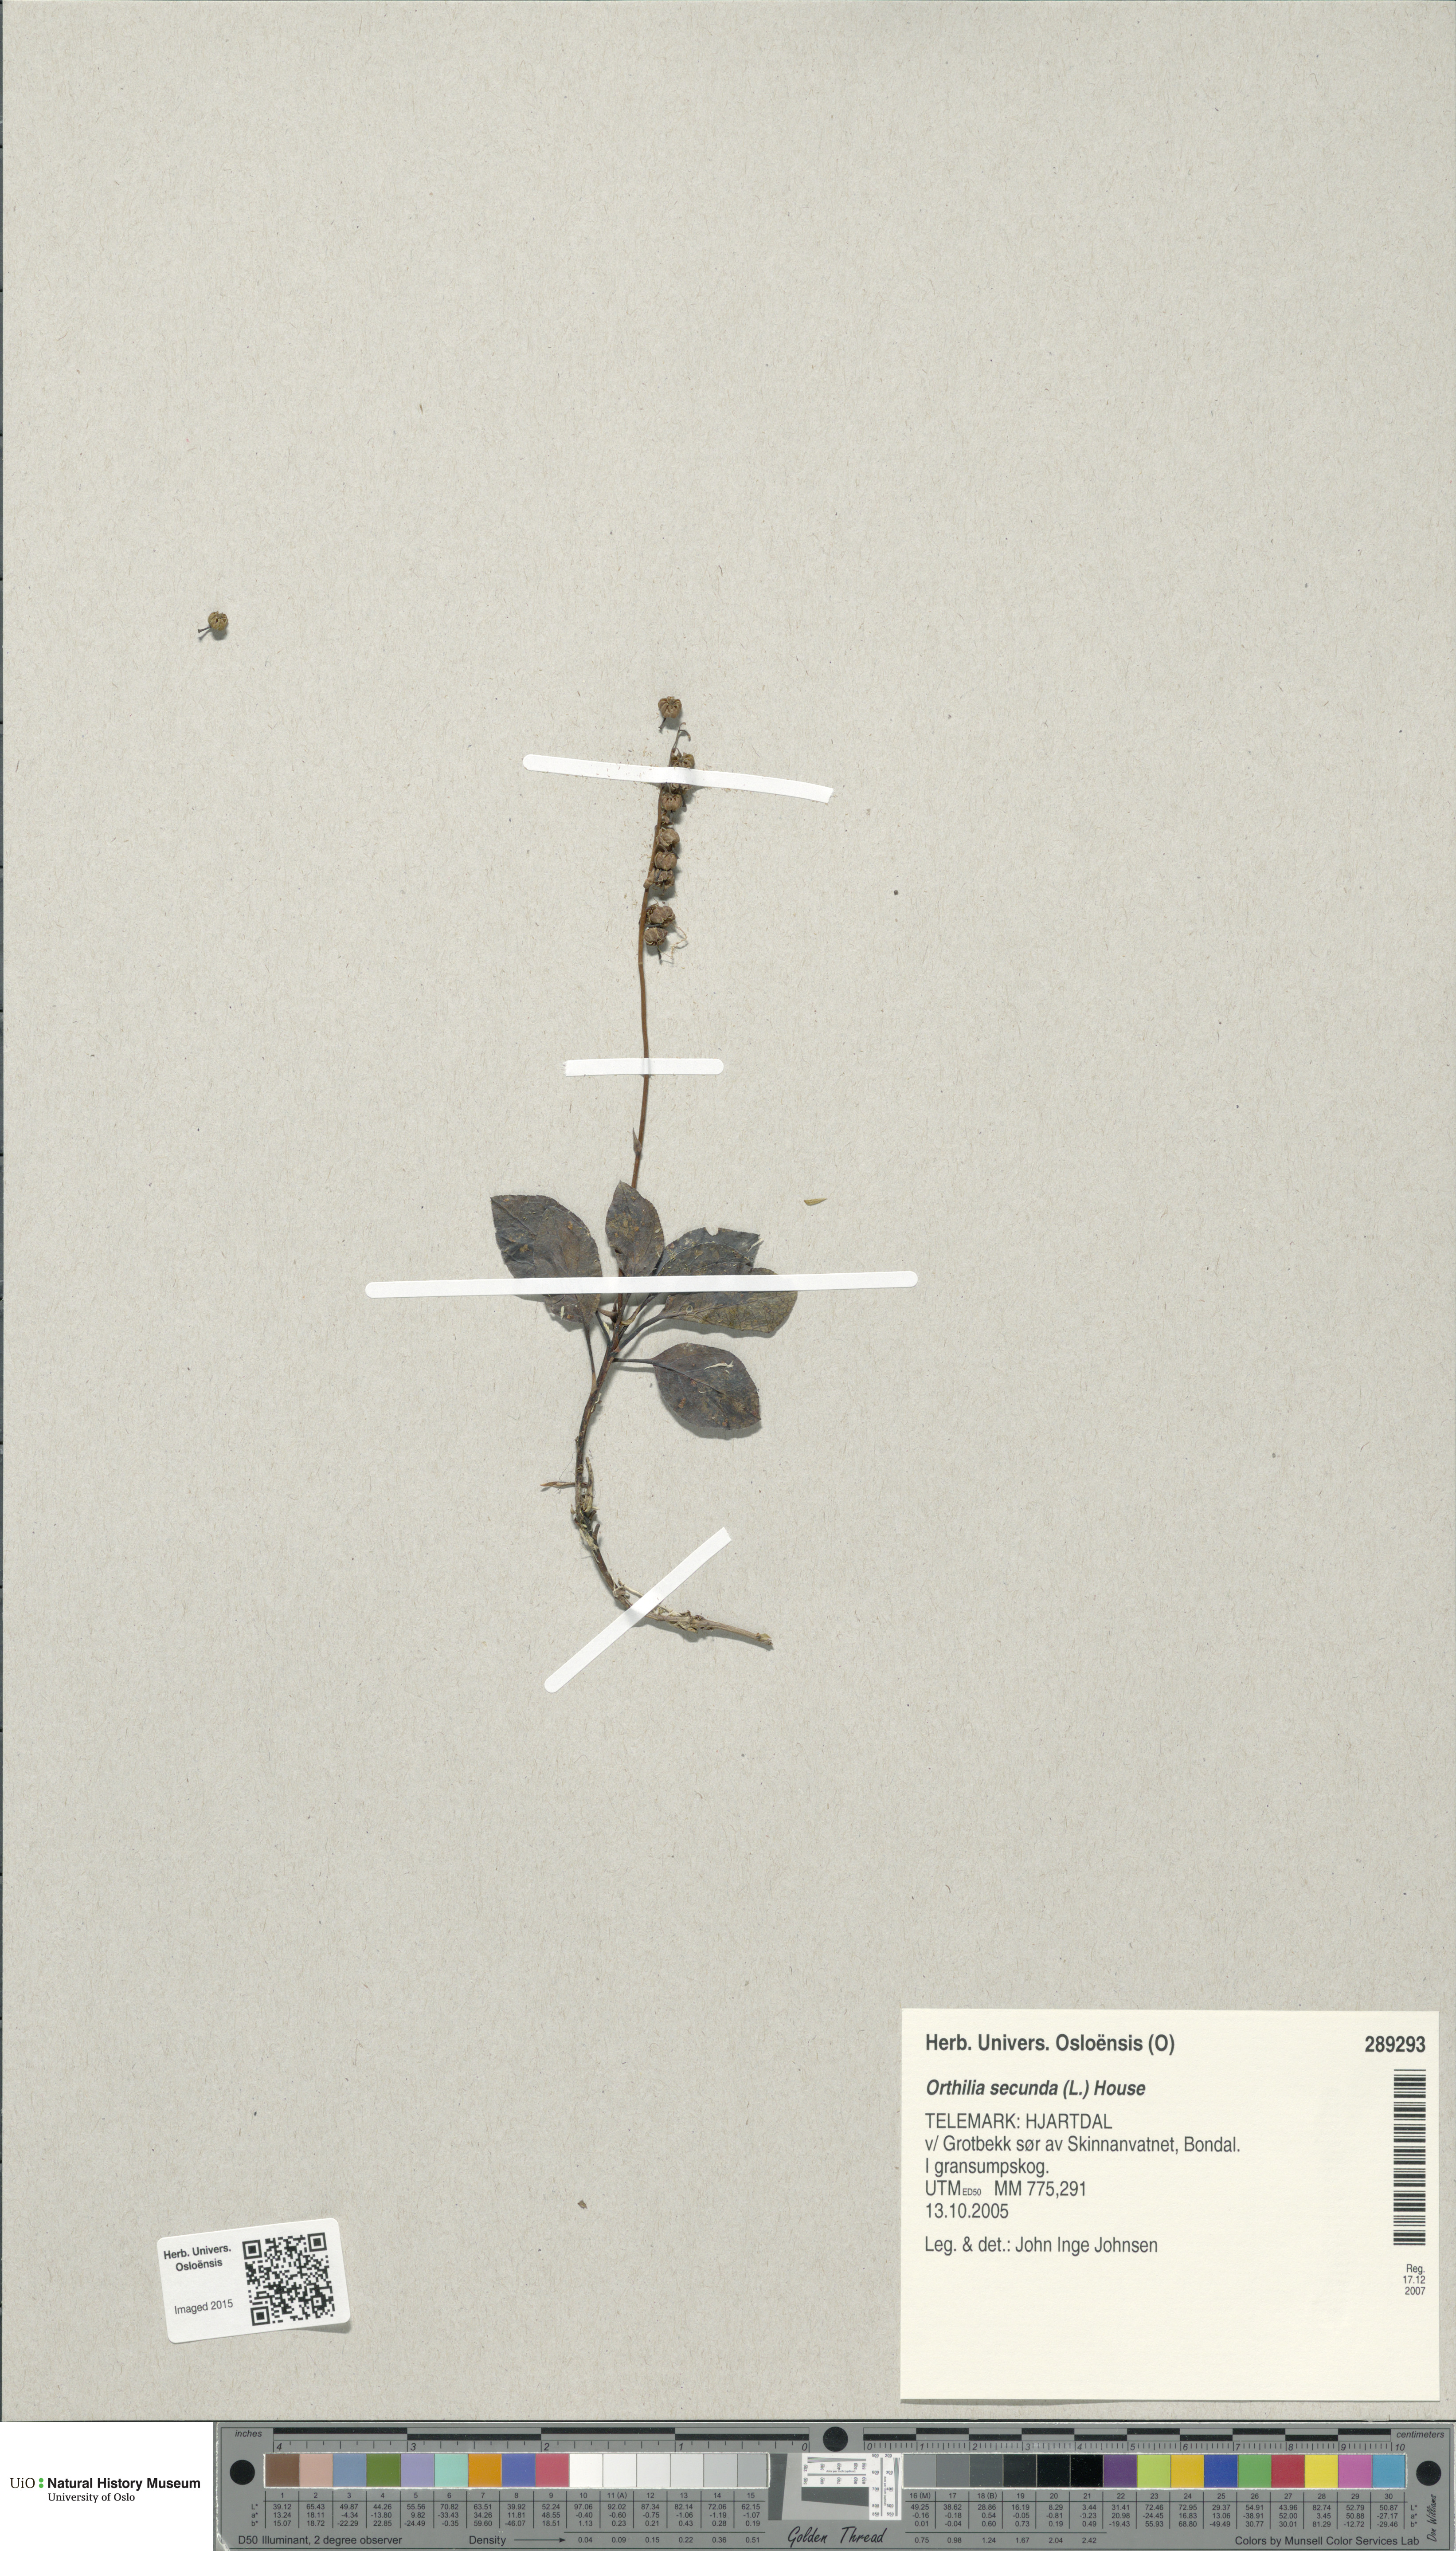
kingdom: Plantae
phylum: Tracheophyta
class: Magnoliopsida
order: Ericales
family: Ericaceae
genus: Orthilia
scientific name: Orthilia secunda
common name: One-sided orthilia
